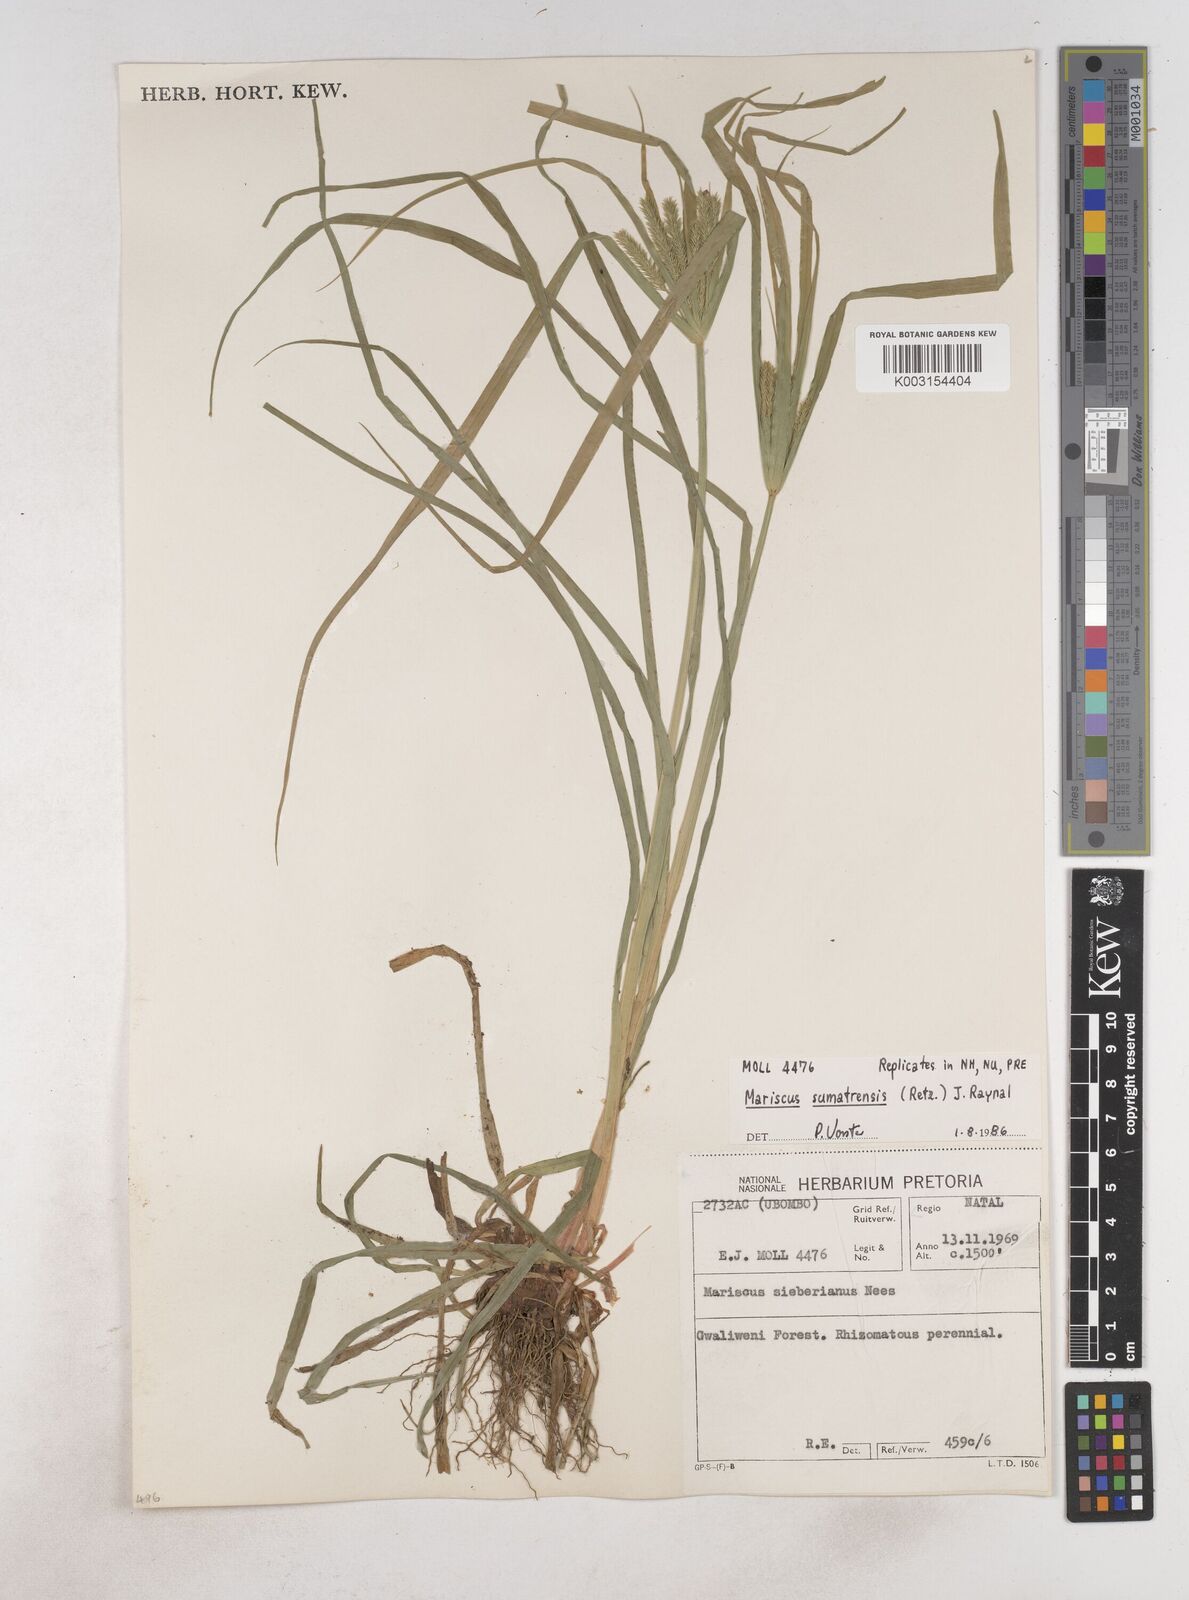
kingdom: Plantae
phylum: Tracheophyta
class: Liliopsida
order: Poales
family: Cyperaceae
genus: Cyperus
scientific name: Cyperus cyperoides
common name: Pacific island flat sedge
